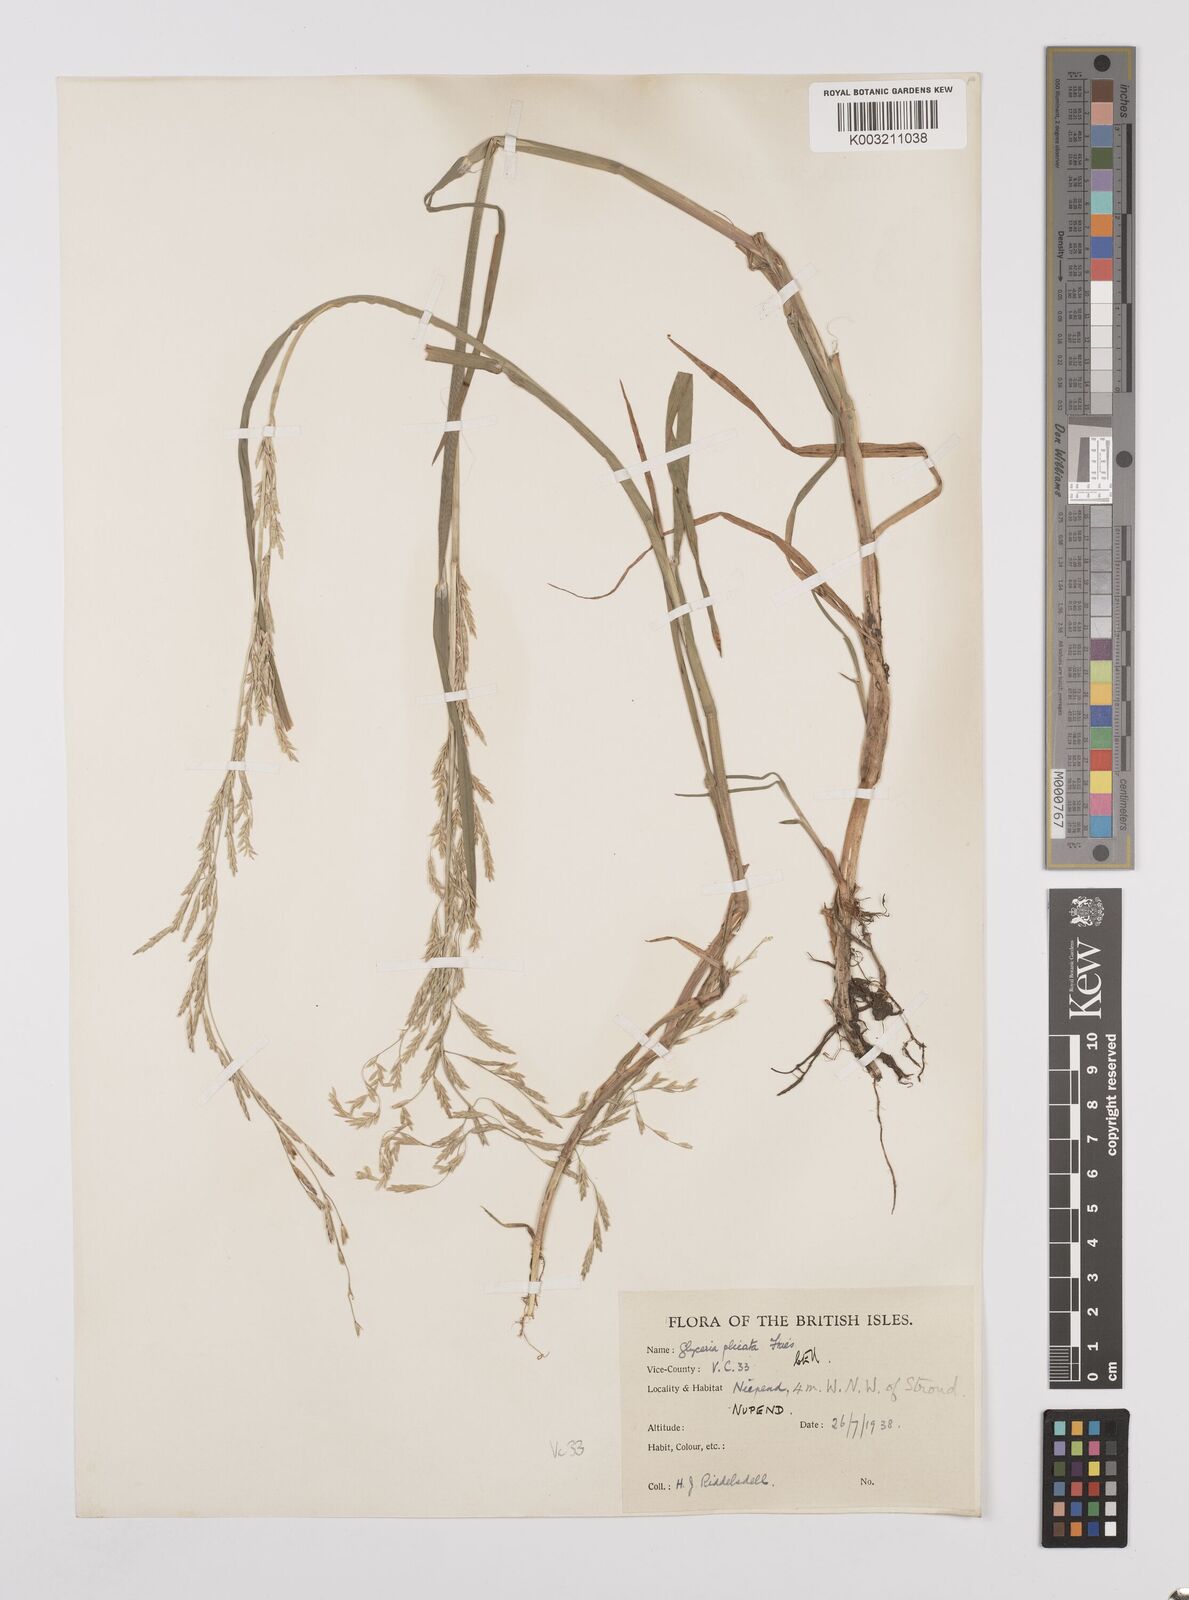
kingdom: Plantae
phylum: Tracheophyta
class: Liliopsida
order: Poales
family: Poaceae
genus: Glyceria
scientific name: Glyceria notata
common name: Plicate sweet-grass
